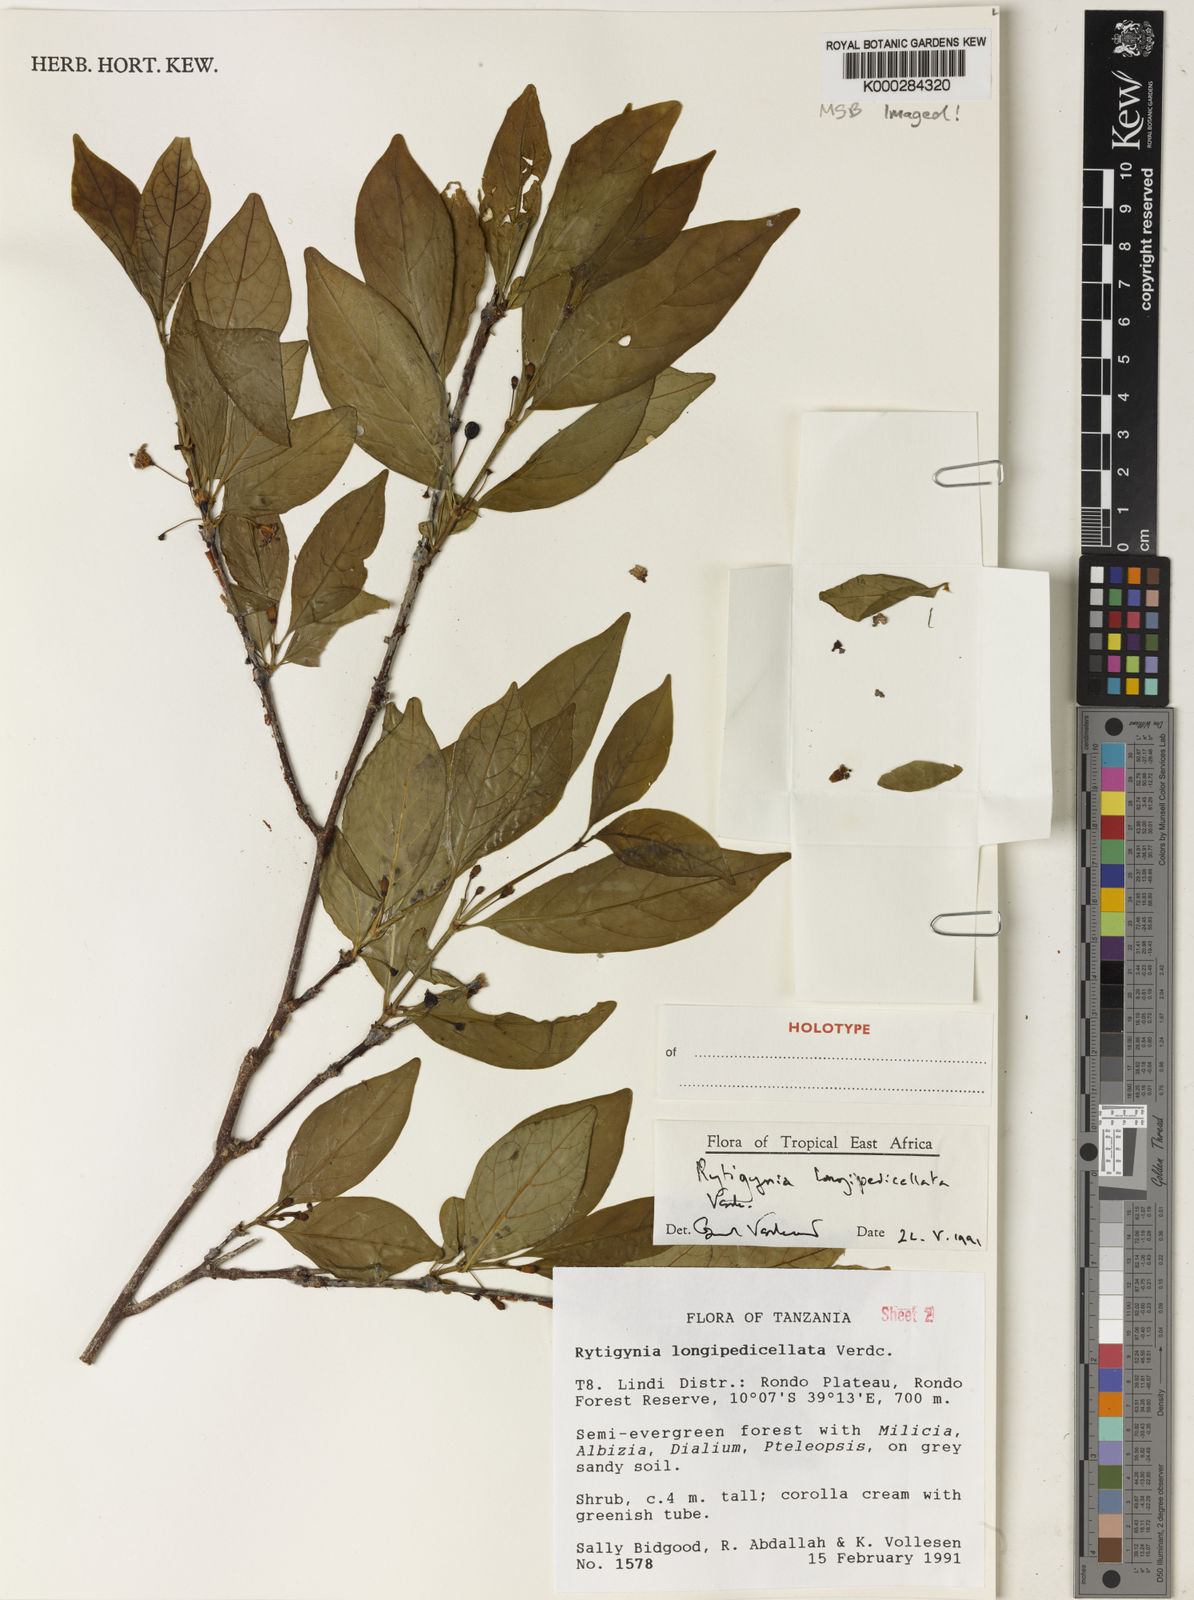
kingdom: Plantae
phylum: Tracheophyta
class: Magnoliopsida
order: Gentianales
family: Rubiaceae
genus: Rytigynia
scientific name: Rytigynia longipedicellata
